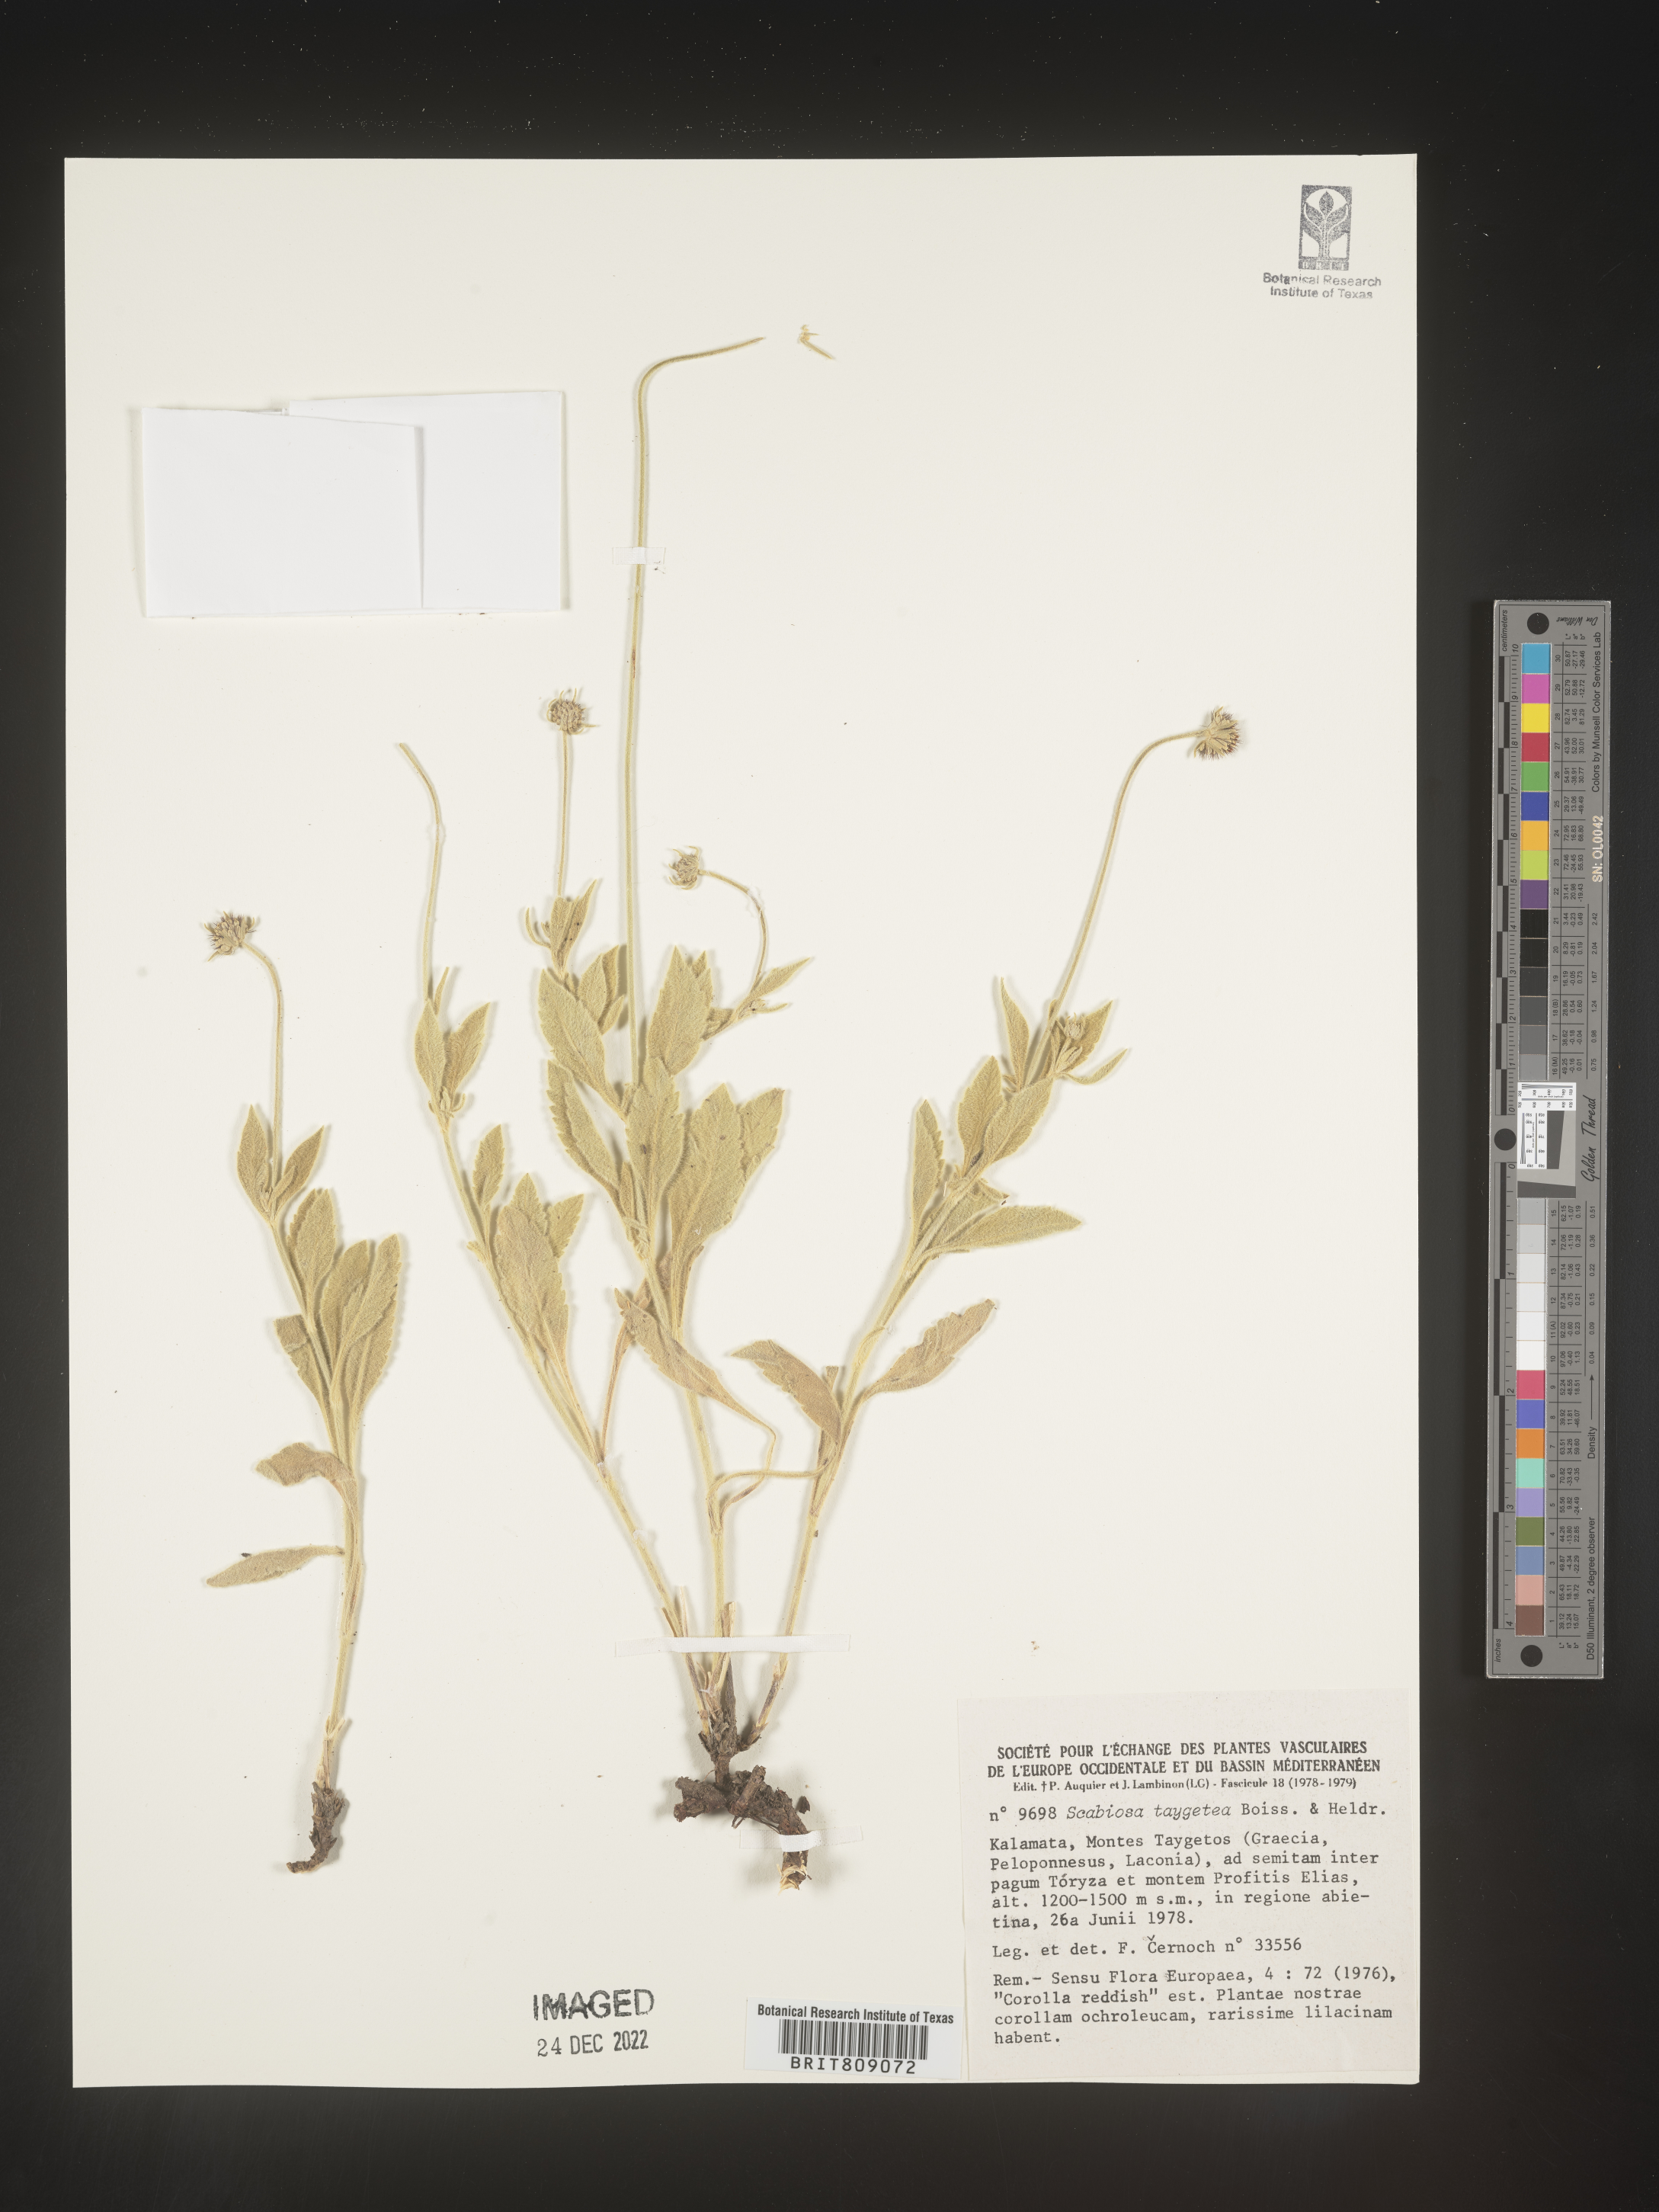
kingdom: Plantae
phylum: Tracheophyta
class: Magnoliopsida
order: Dipsacales
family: Caprifoliaceae
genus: Scabiosa
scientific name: Scabiosa
